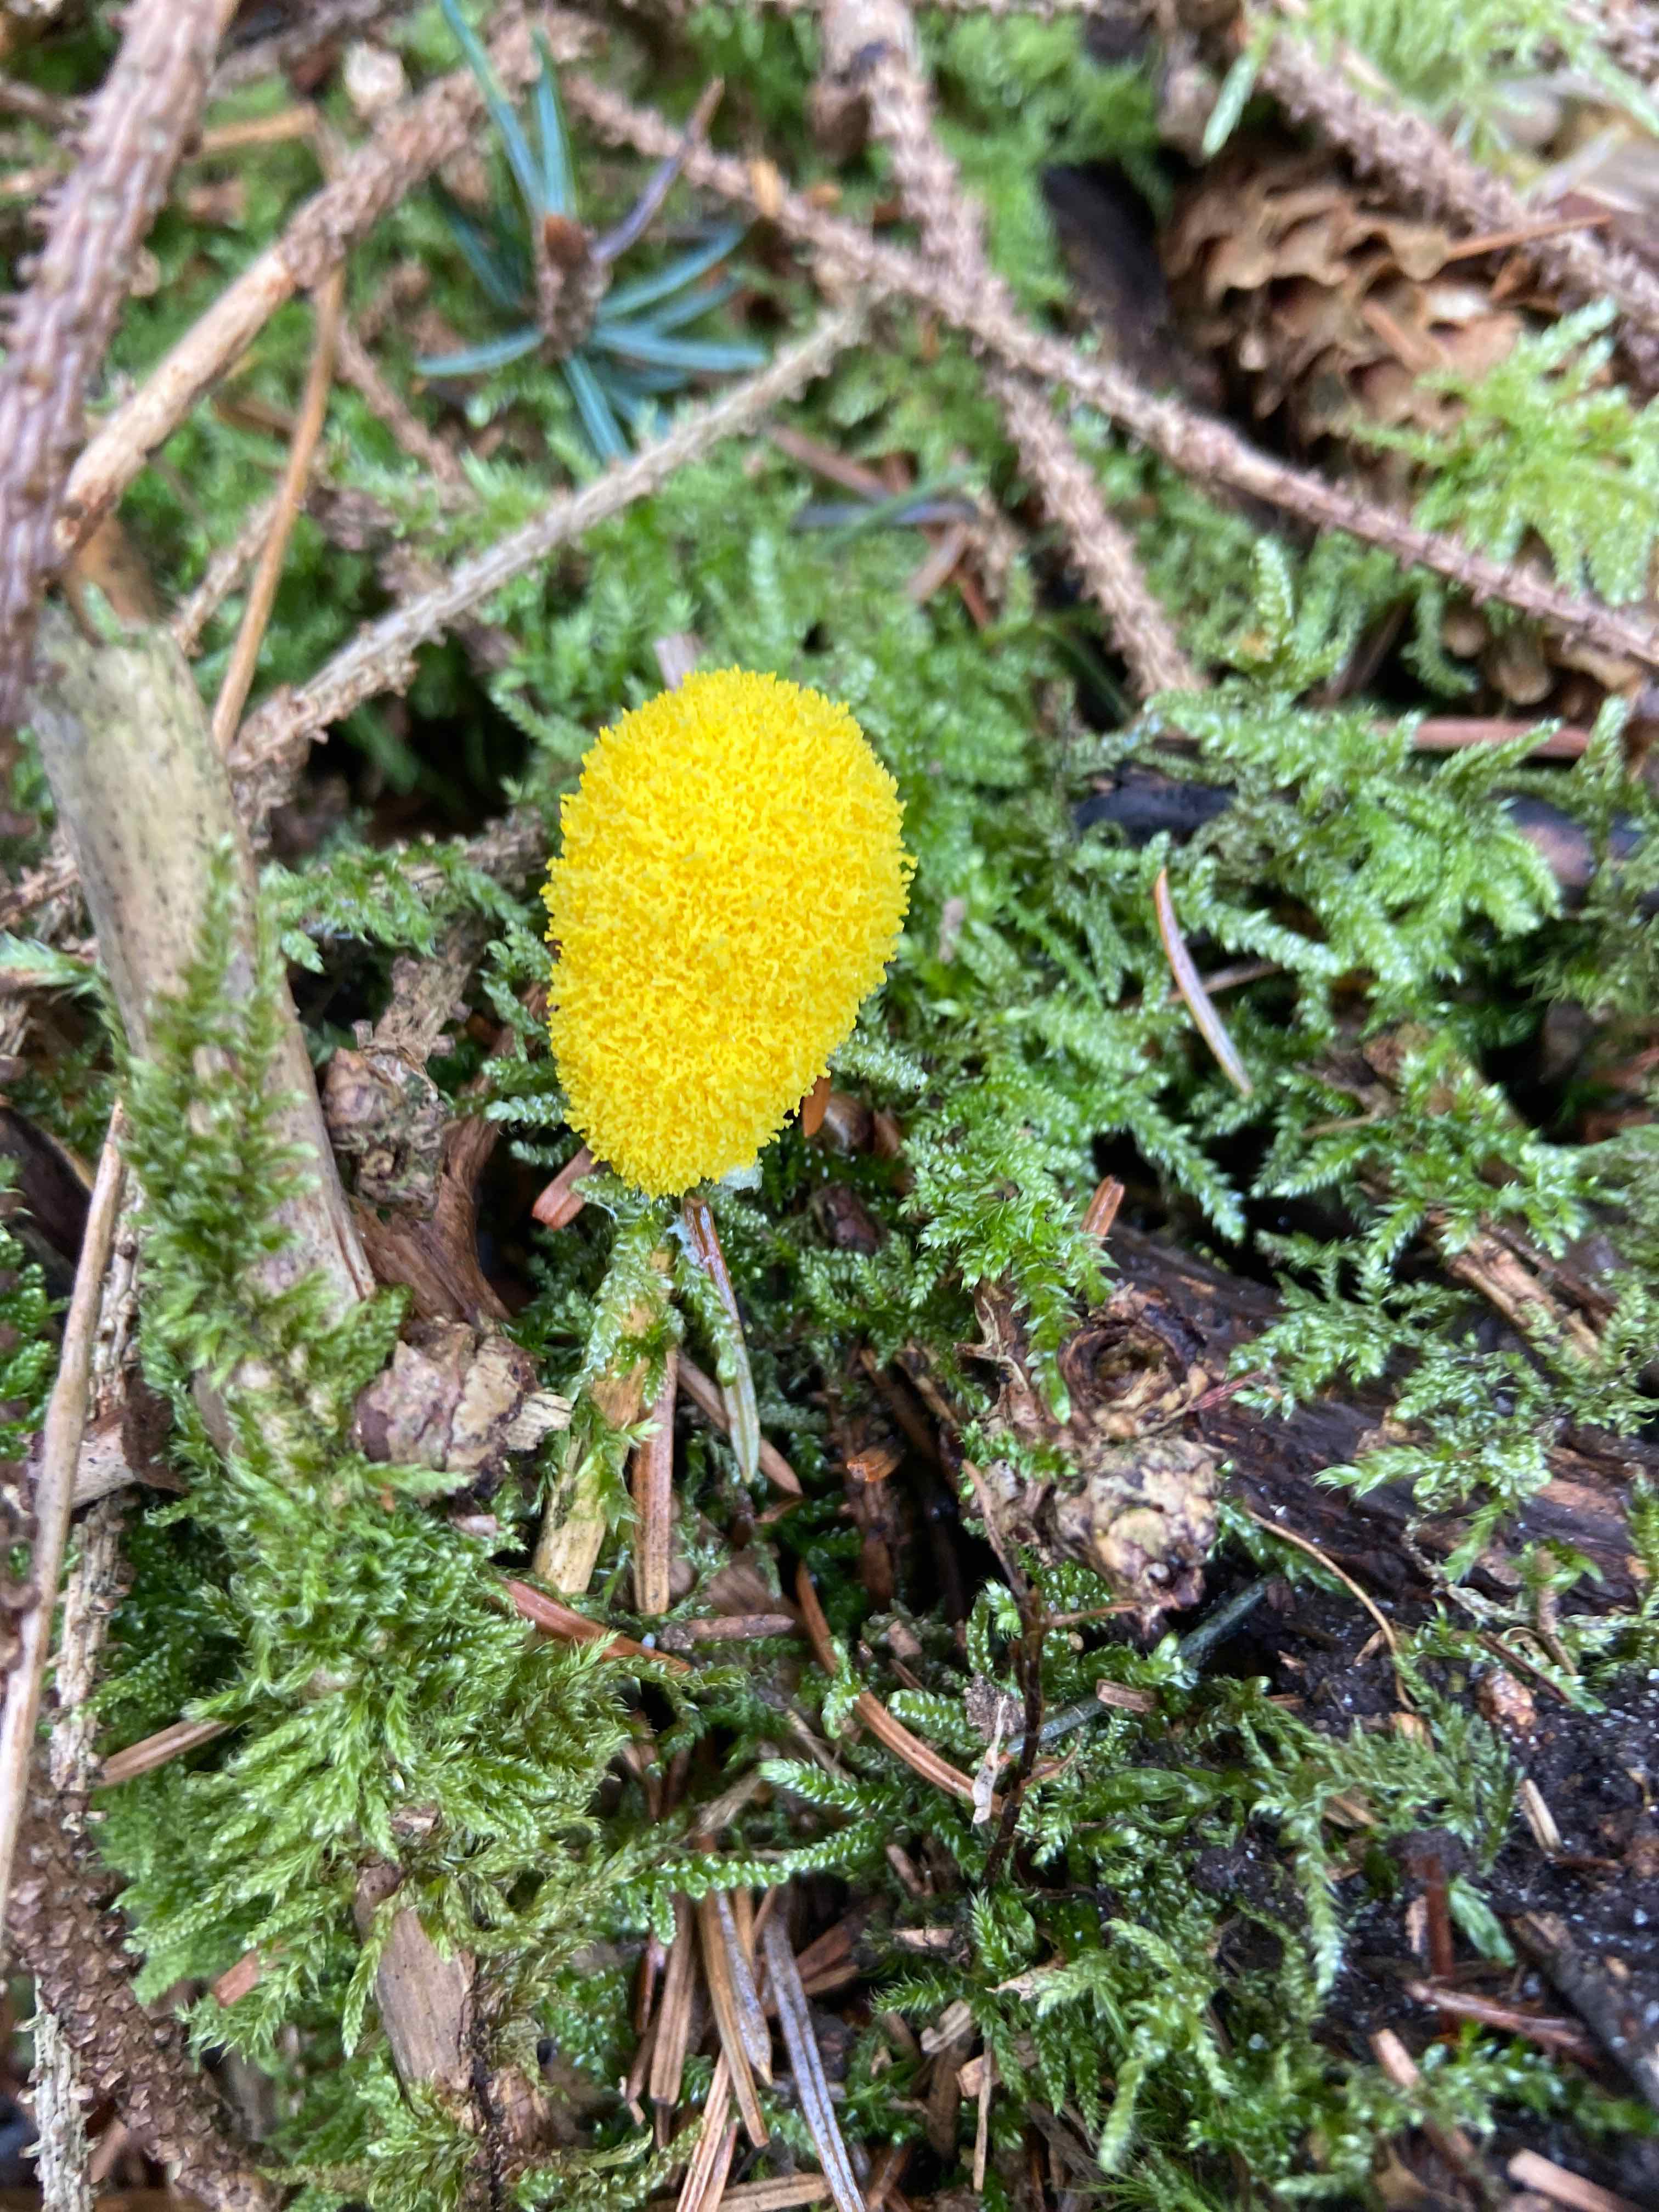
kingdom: Protozoa
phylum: Mycetozoa
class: Myxomycetes
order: Physarales
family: Physaraceae
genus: Fuligo
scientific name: Fuligo septica
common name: gul troldsmør
